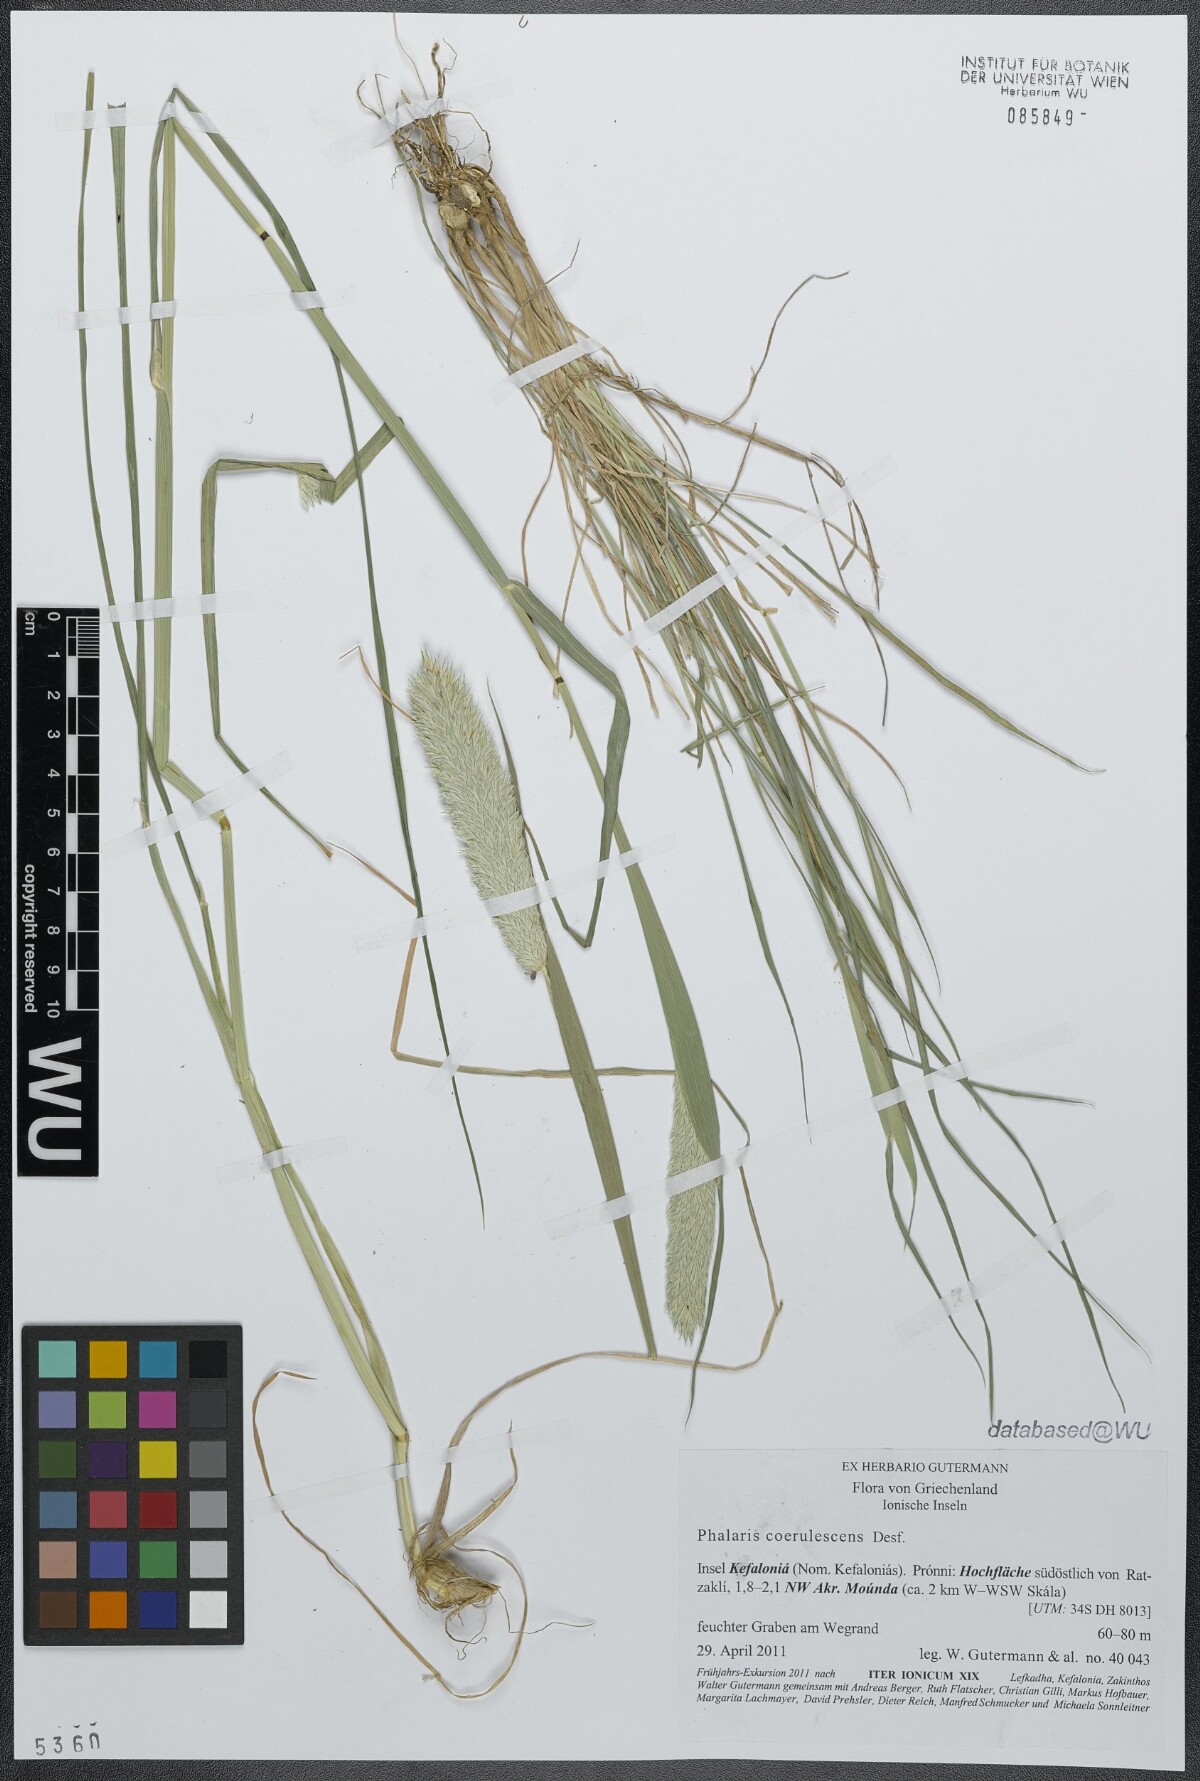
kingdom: Plantae
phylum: Tracheophyta
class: Liliopsida
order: Poales
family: Poaceae
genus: Phalaris
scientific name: Phalaris coerulescens
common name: Sunolgrass
